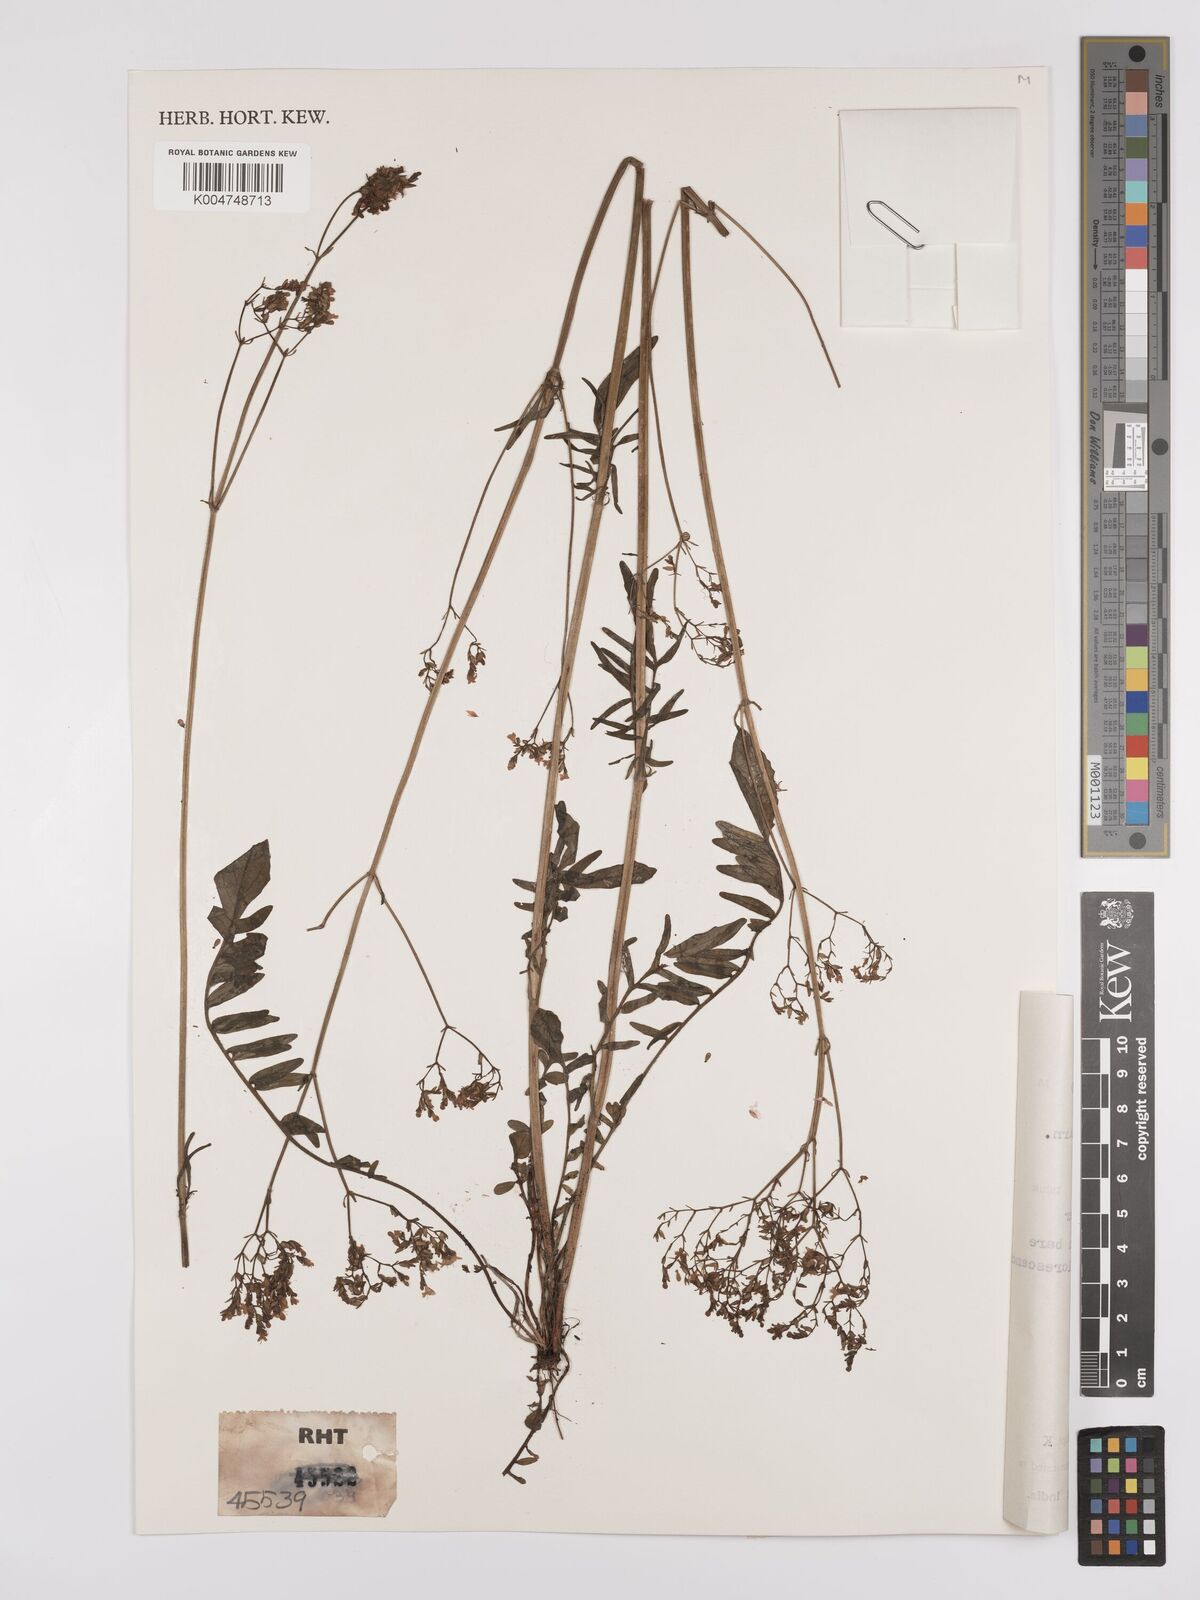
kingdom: Plantae
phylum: Tracheophyta
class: Magnoliopsida
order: Dipsacales
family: Caprifoliaceae
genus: Valeriana
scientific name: Valeriana hardwickei
